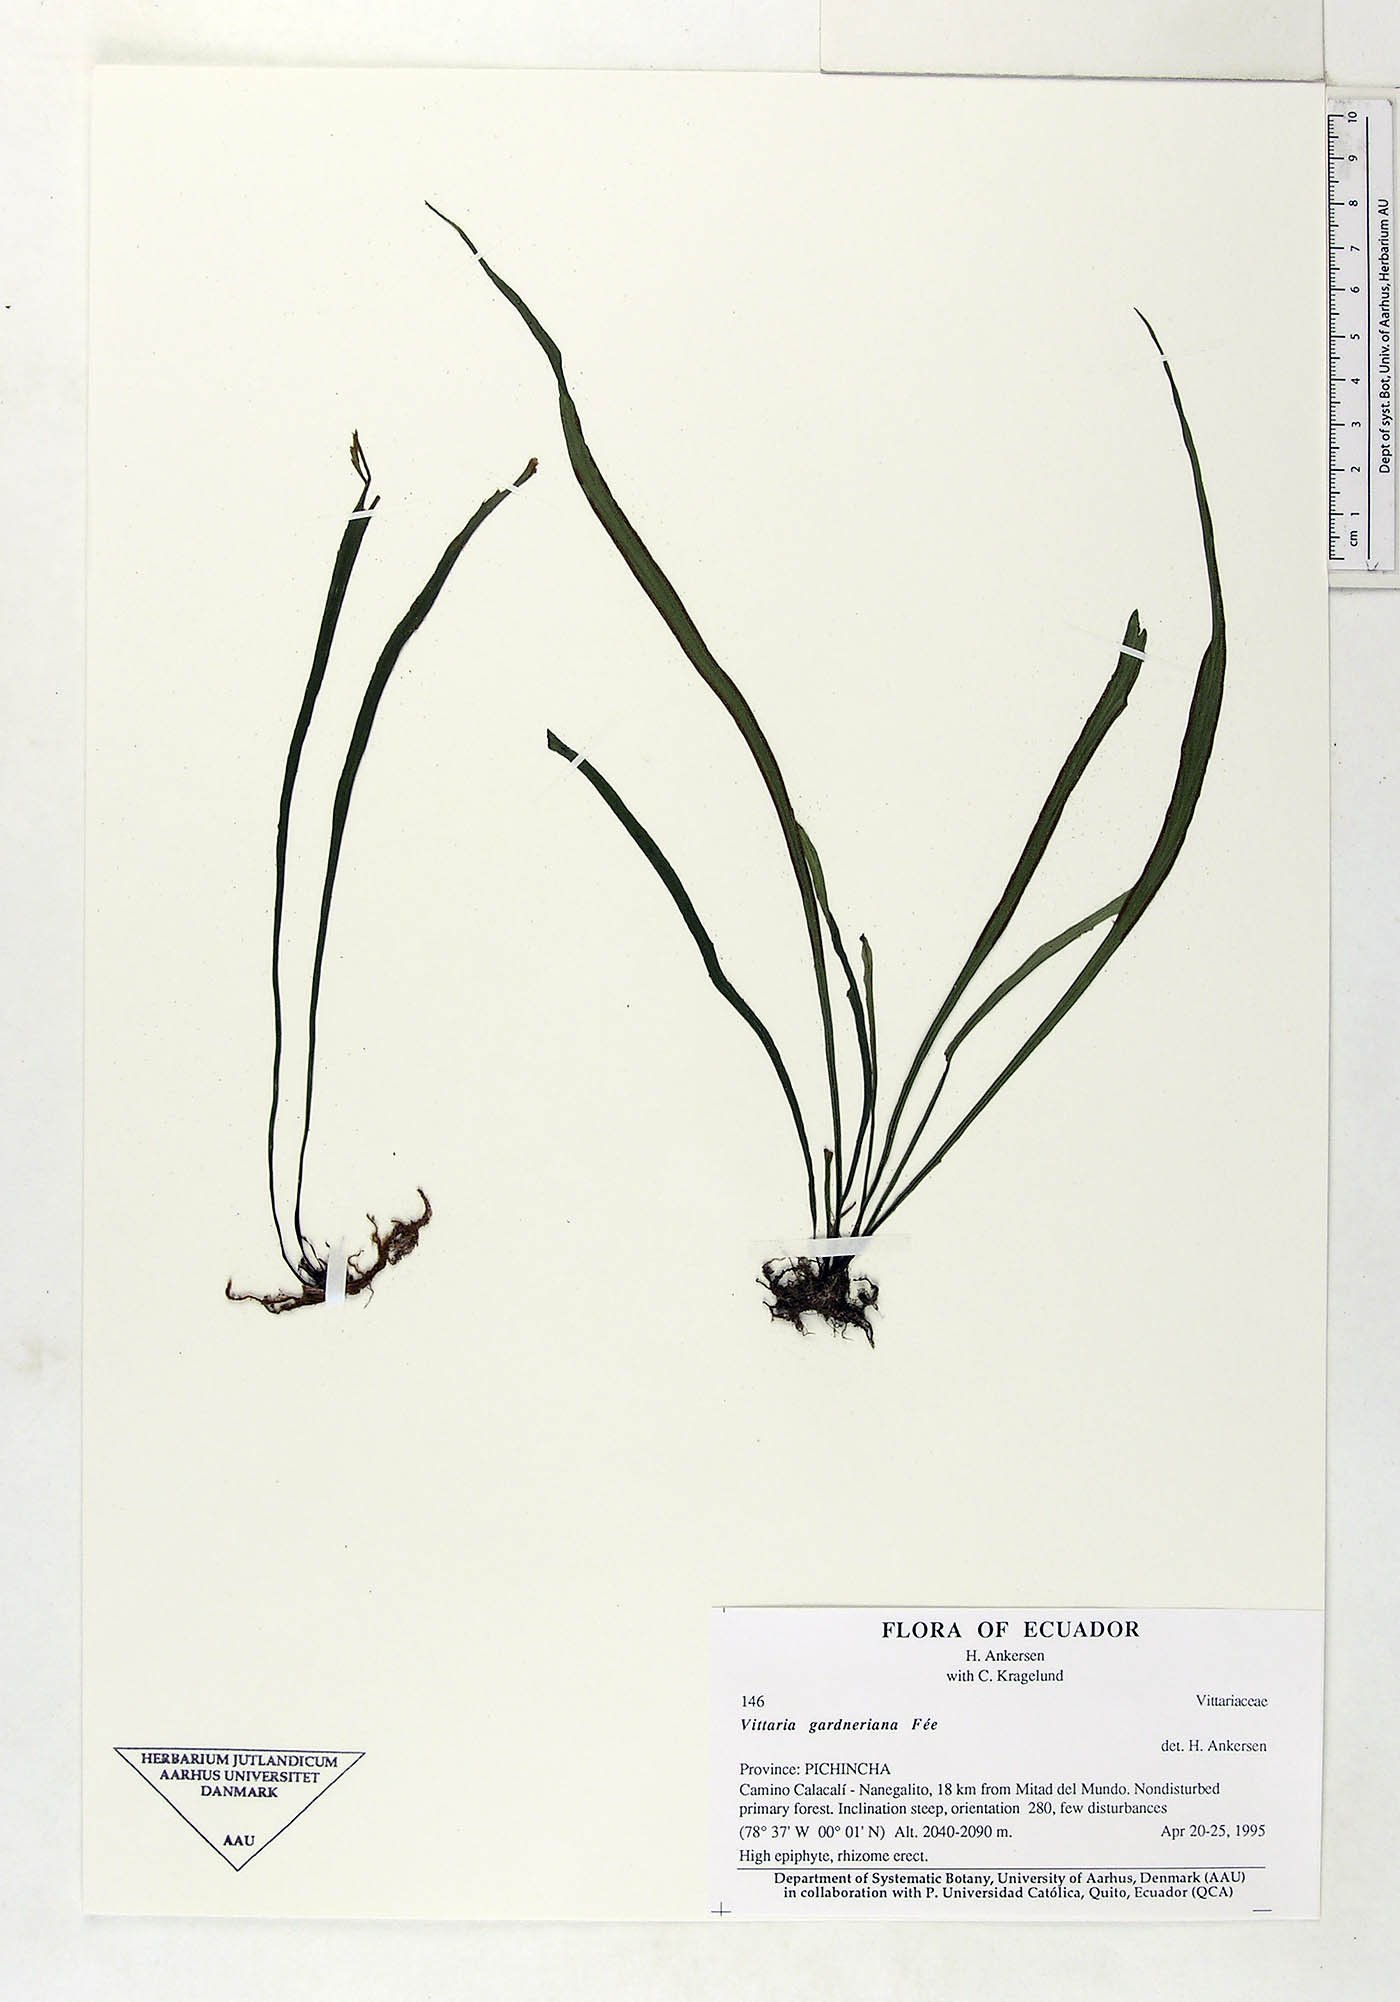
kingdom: Plantae
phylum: Tracheophyta
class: Polypodiopsida
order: Polypodiales
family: Pteridaceae
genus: Radiovittaria
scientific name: Radiovittaria gardneriana
